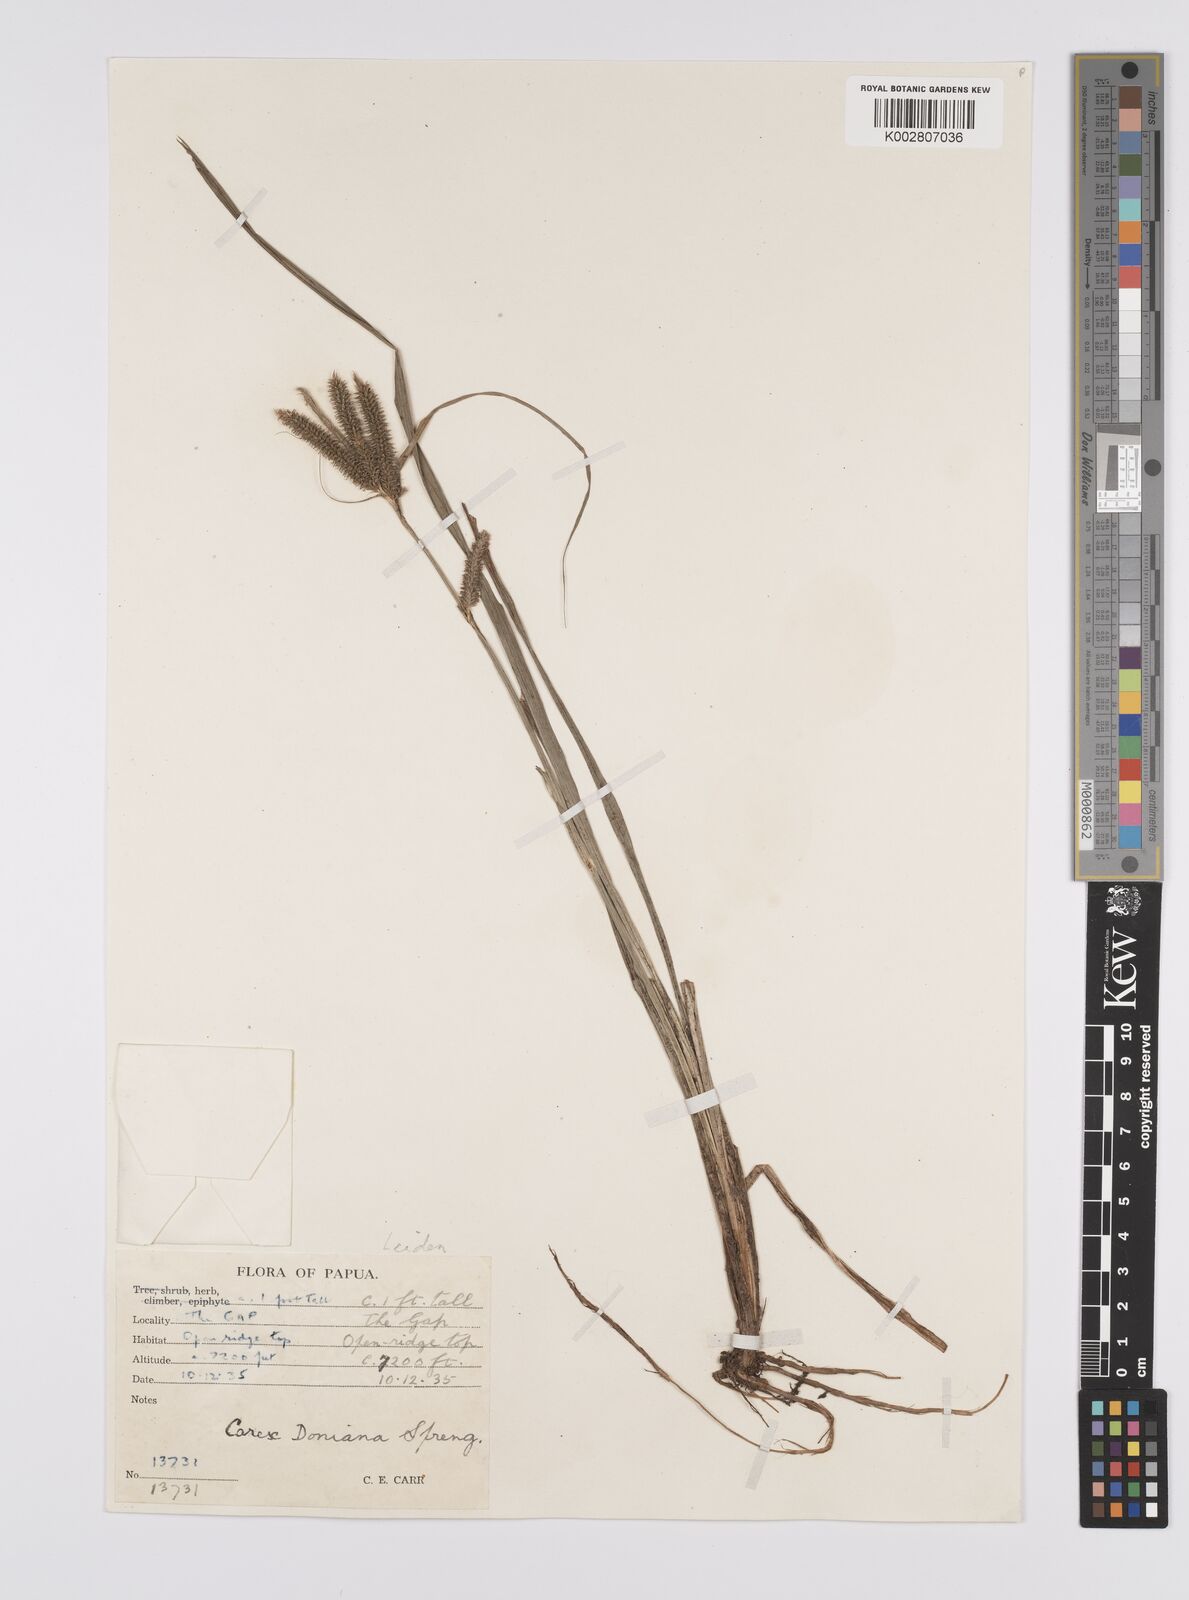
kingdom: Plantae
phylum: Tracheophyta
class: Liliopsida
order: Poales
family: Cyperaceae
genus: Carex
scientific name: Carex alopecuroides
